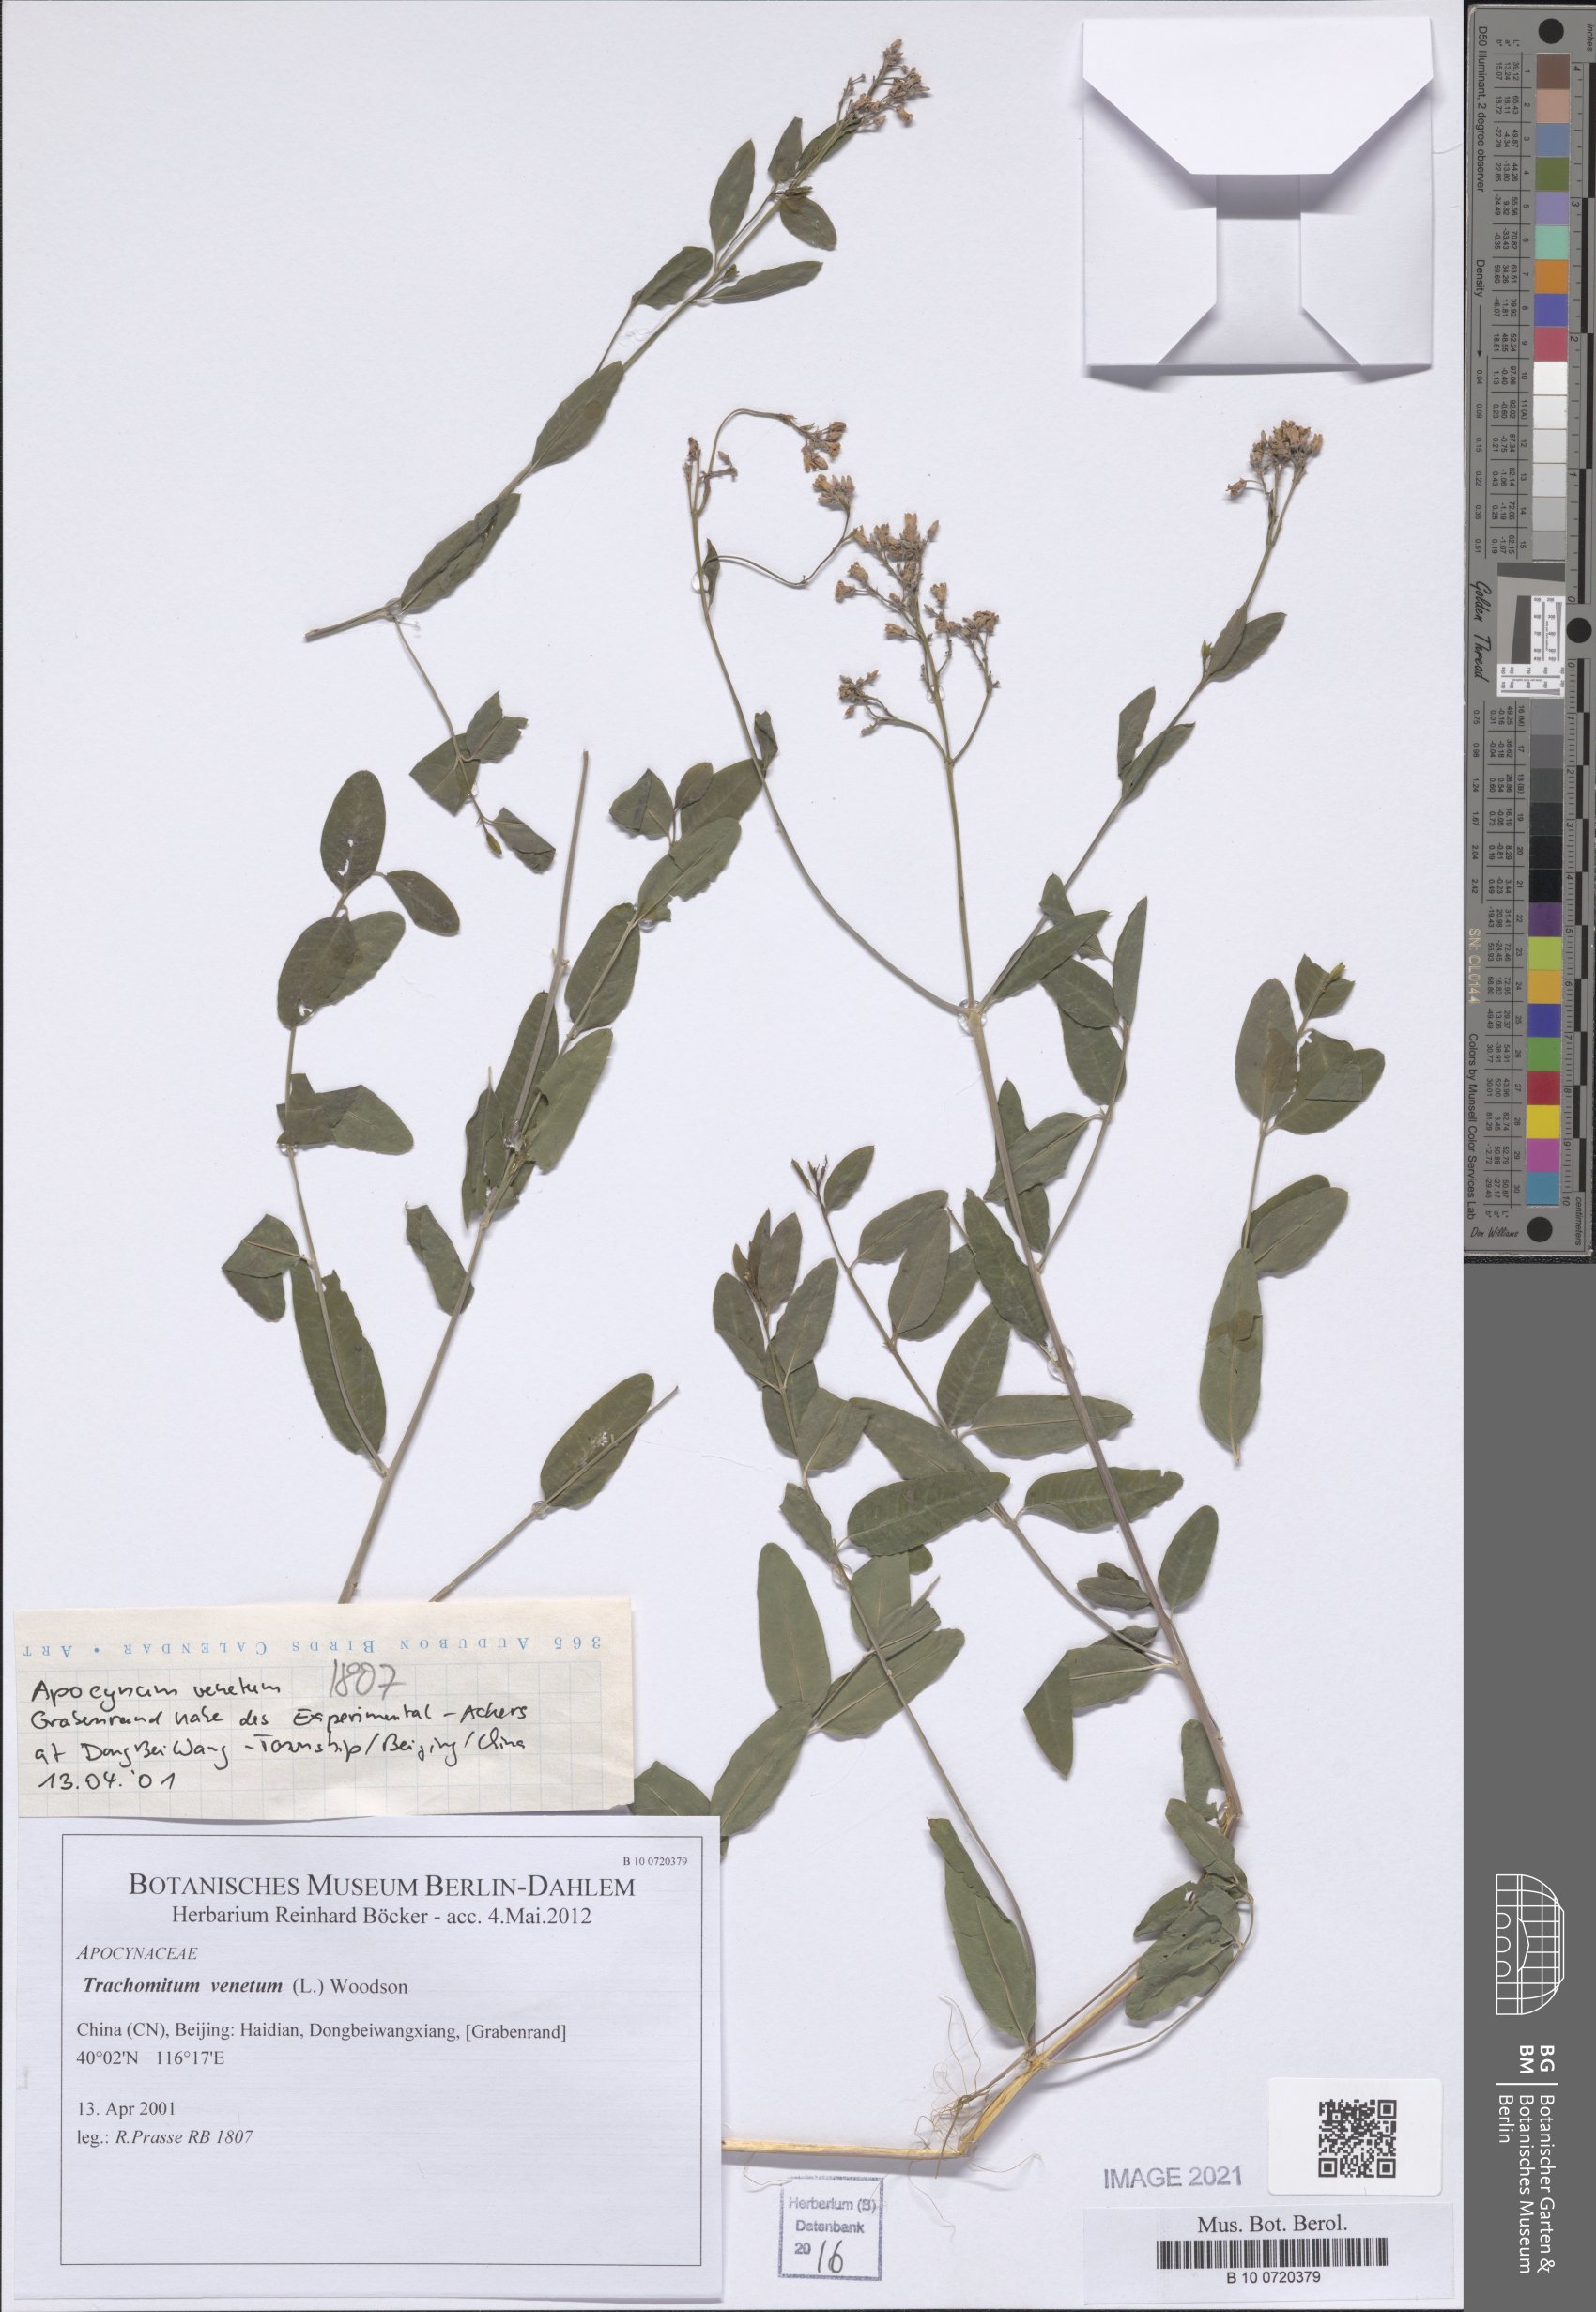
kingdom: Plantae
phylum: Tracheophyta
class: Magnoliopsida
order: Gentianales
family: Apocynaceae
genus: Poacynum
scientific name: Poacynum venetum
